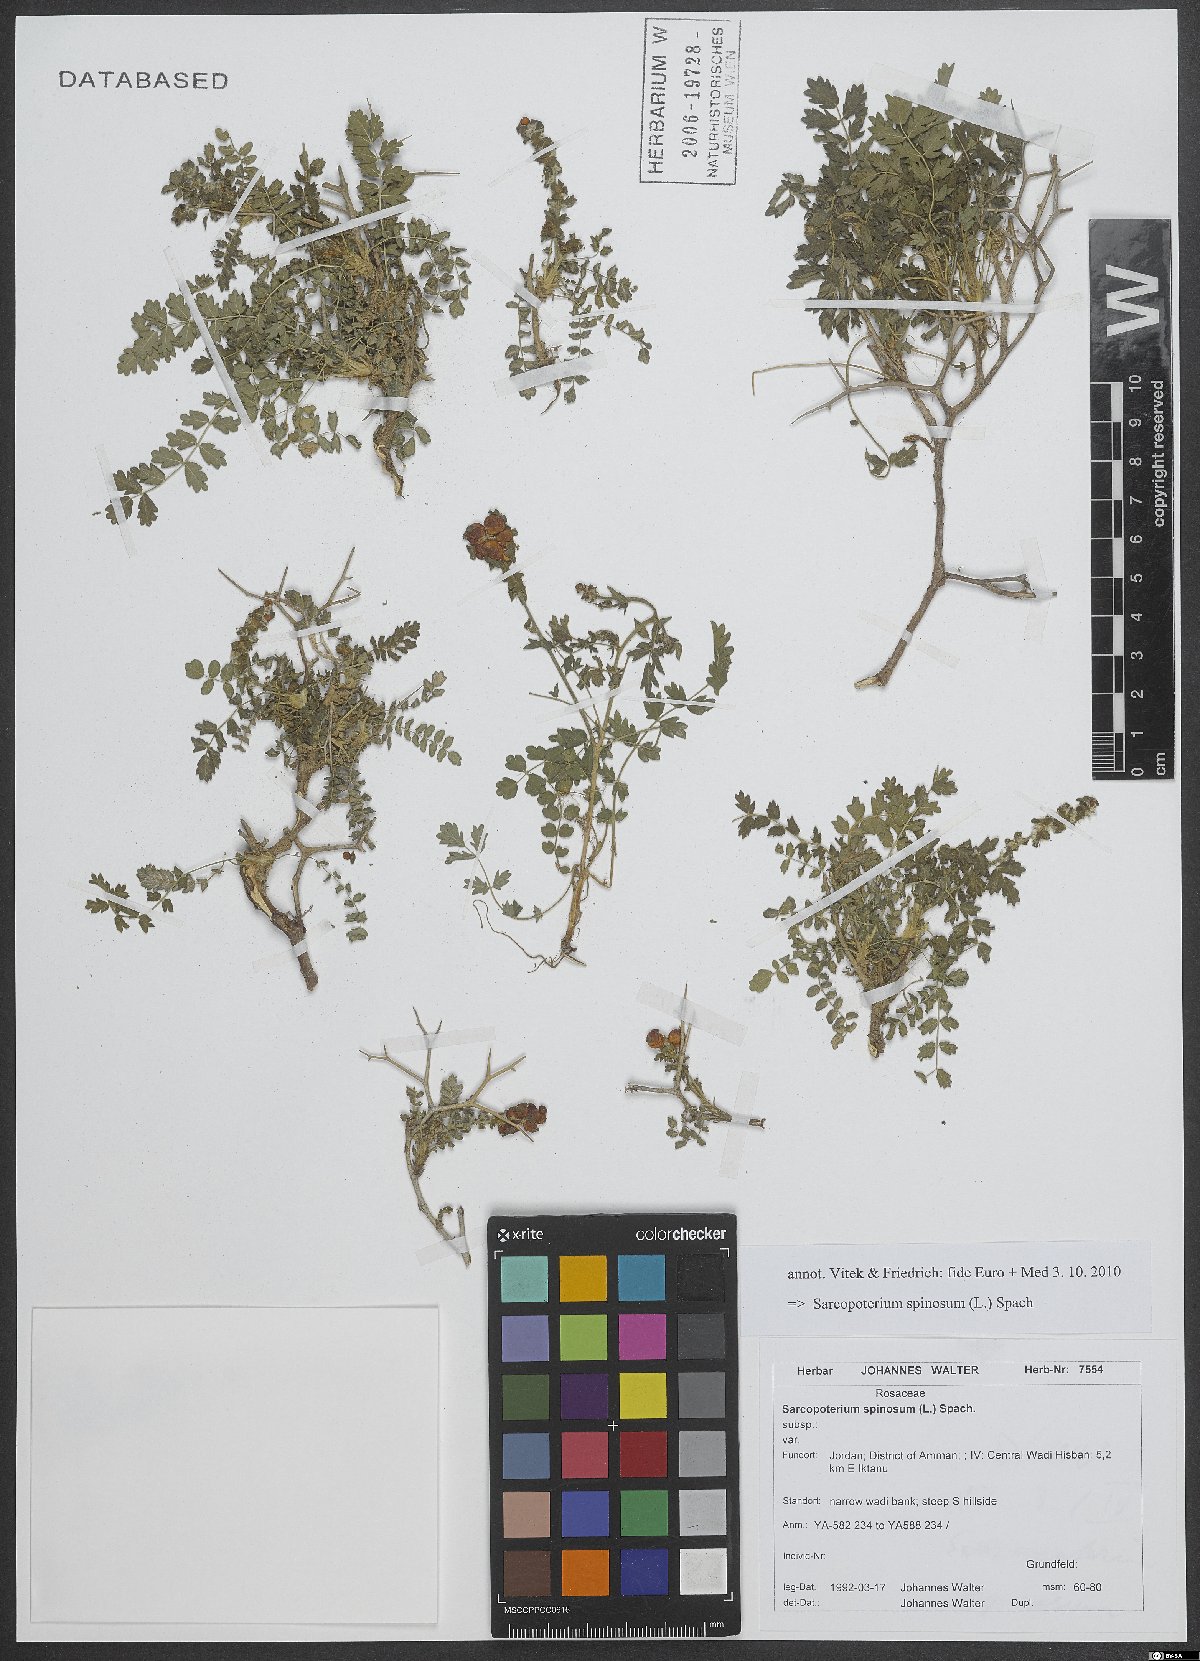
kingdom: Plantae
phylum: Tracheophyta
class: Magnoliopsida
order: Rosales
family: Rosaceae
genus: Sarcopoterium
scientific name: Sarcopoterium spinosum
